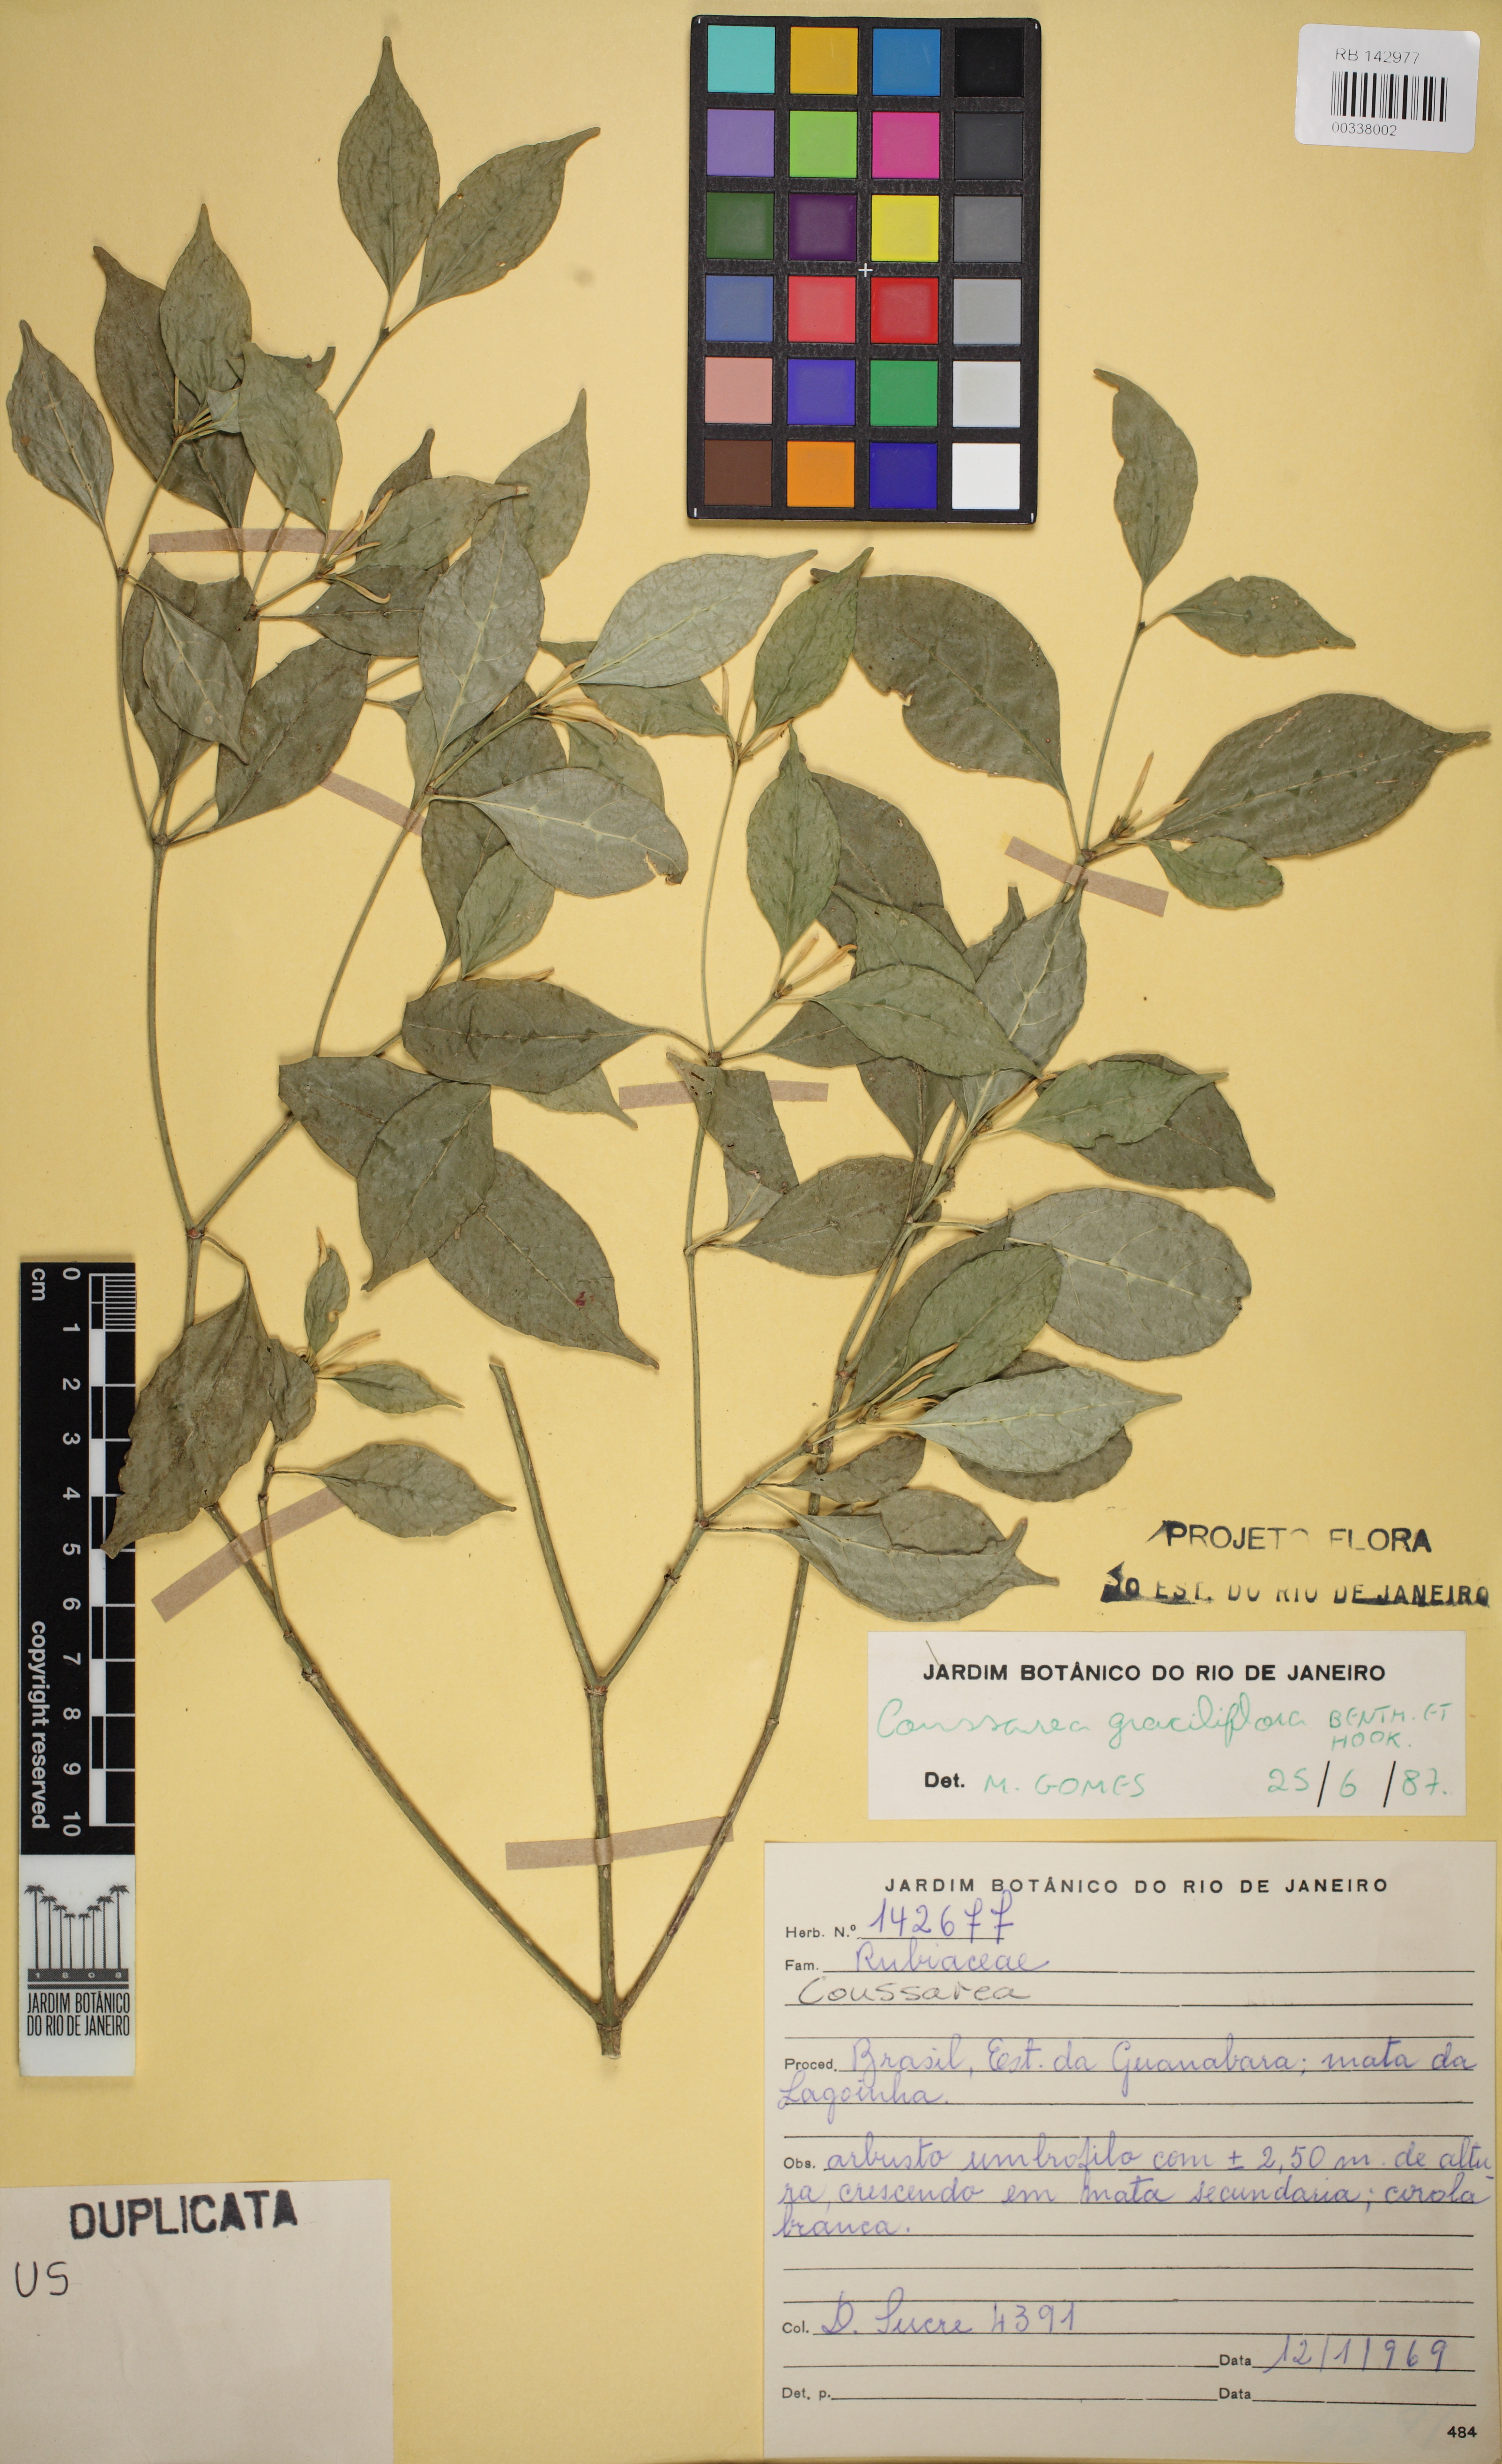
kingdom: Plantae
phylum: Tracheophyta
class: Magnoliopsida
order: Gentianales
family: Rubiaceae
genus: Coussarea
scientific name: Coussarea graciliflora
